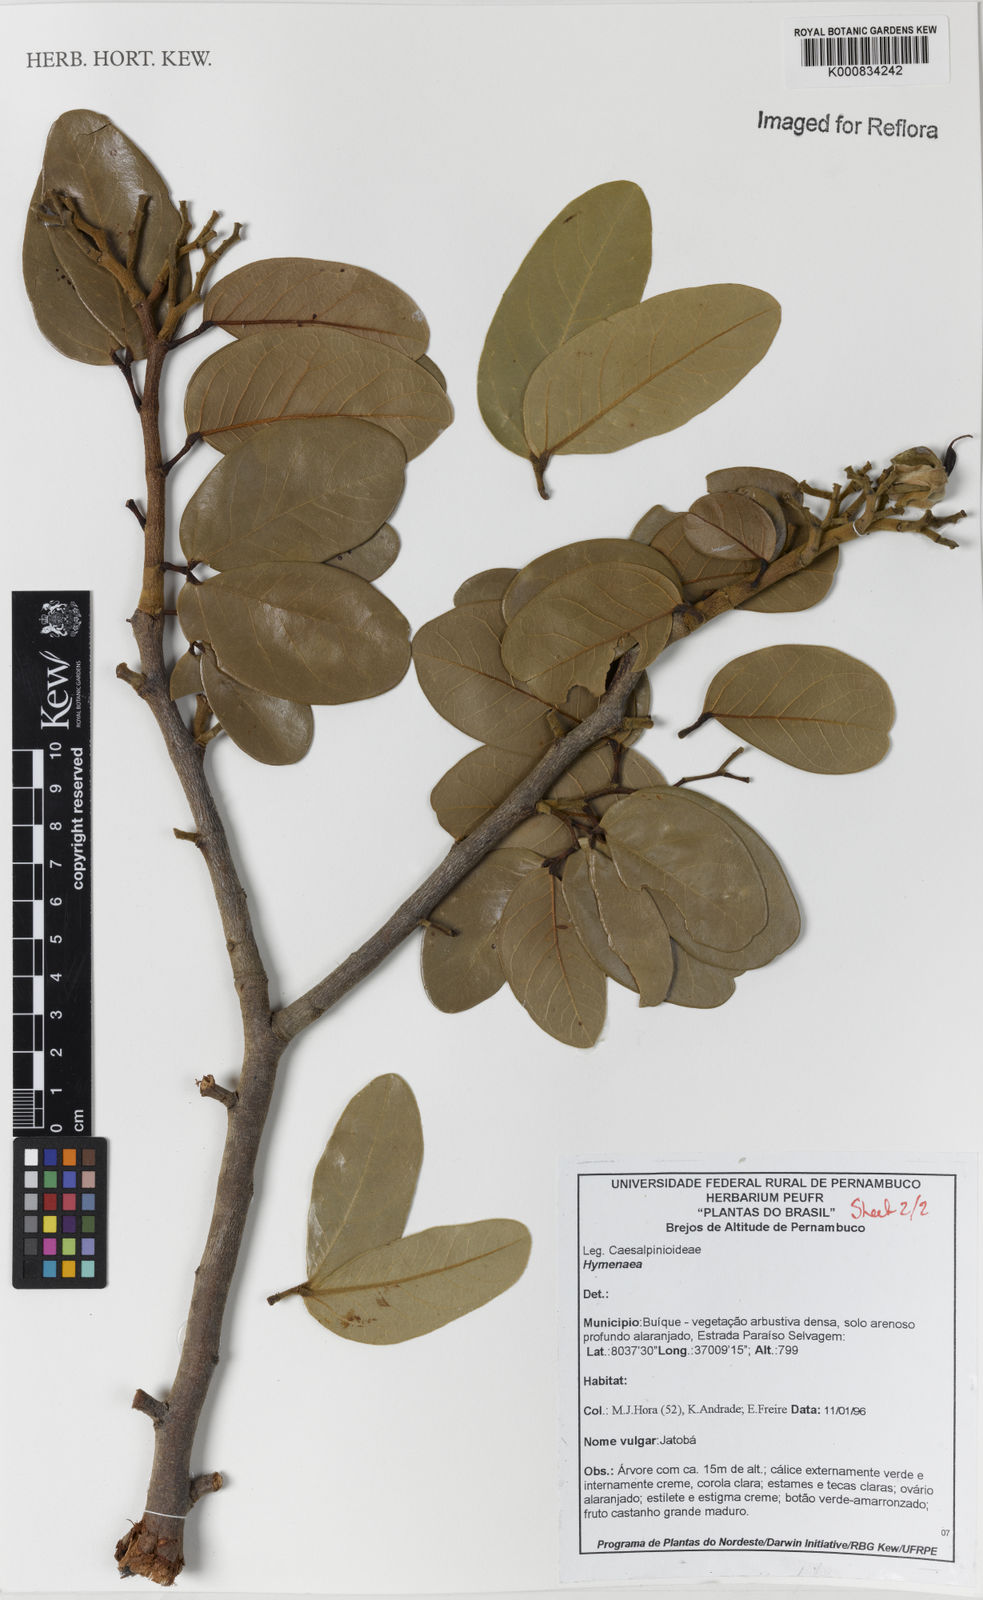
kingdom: Plantae
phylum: Tracheophyta
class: Magnoliopsida
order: Fabales
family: Fabaceae
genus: Hymenaea
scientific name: Hymenaea
